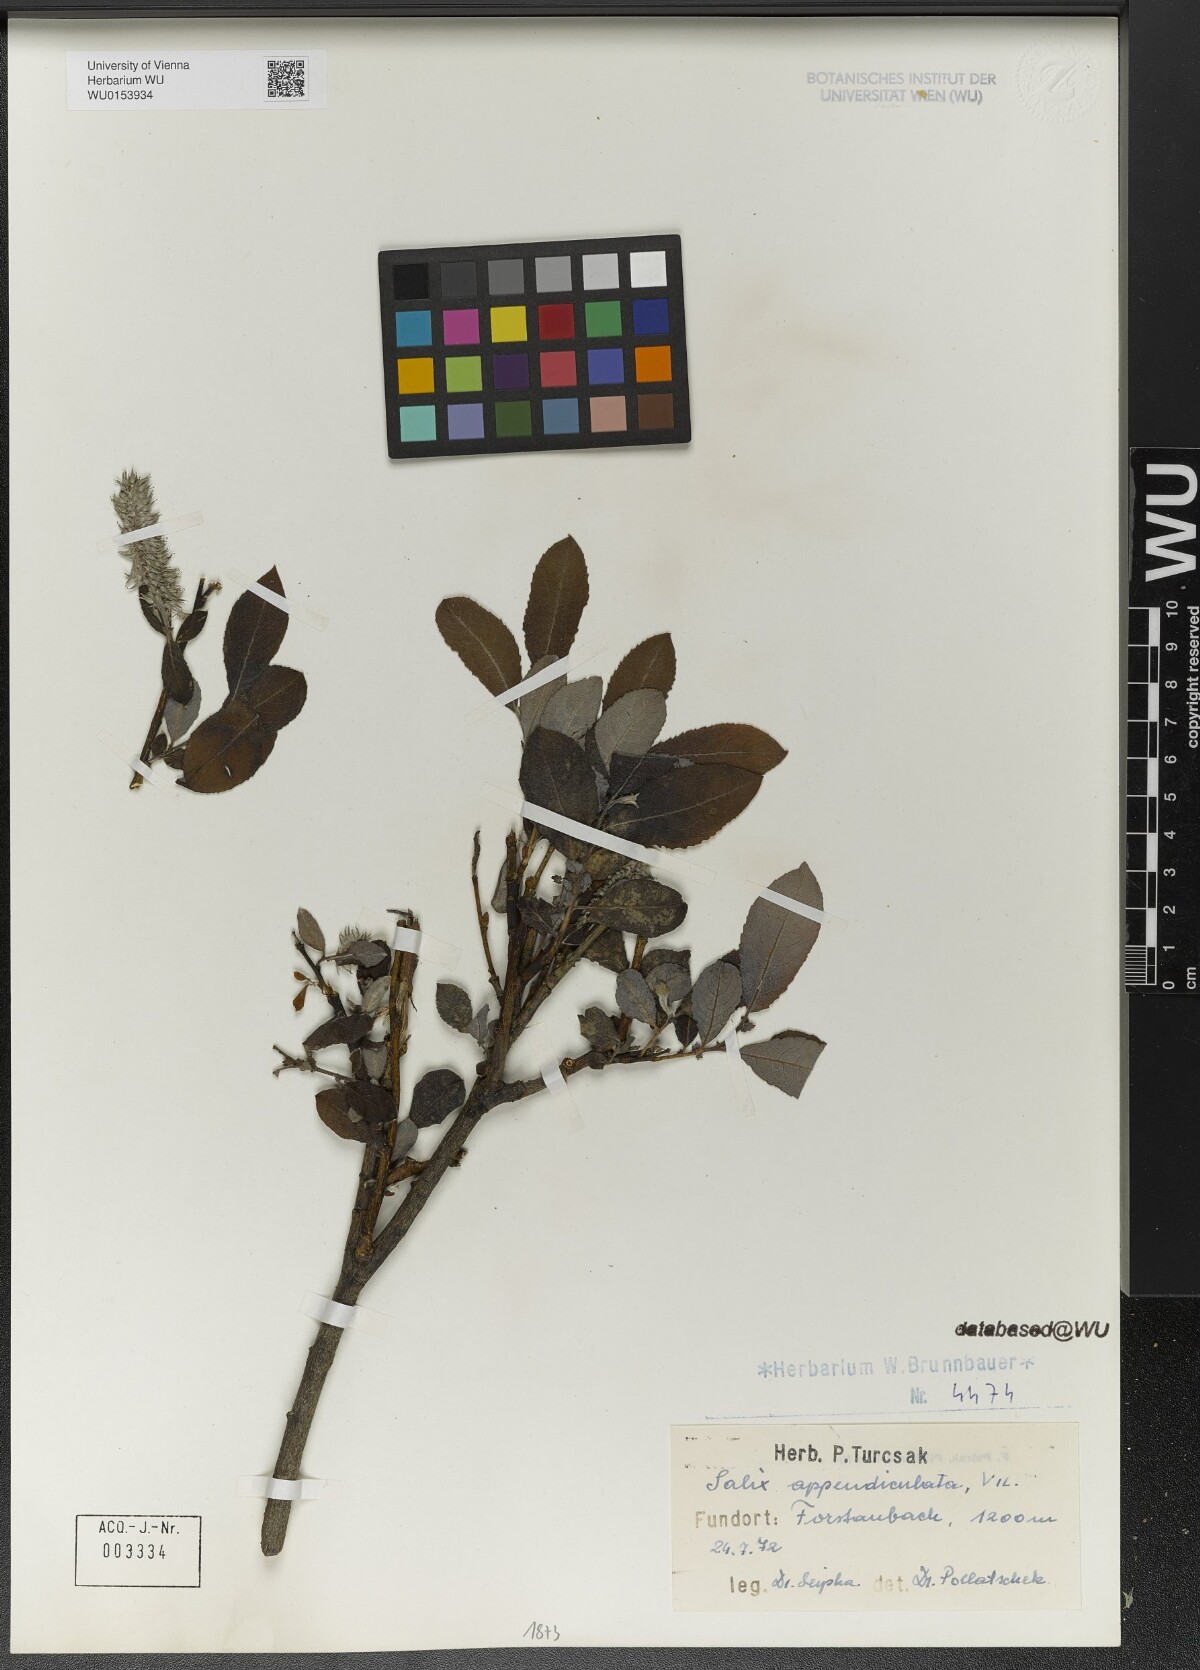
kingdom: Plantae
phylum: Tracheophyta
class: Magnoliopsida
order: Malpighiales
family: Salicaceae
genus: Salix
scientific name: Salix appendiculata
